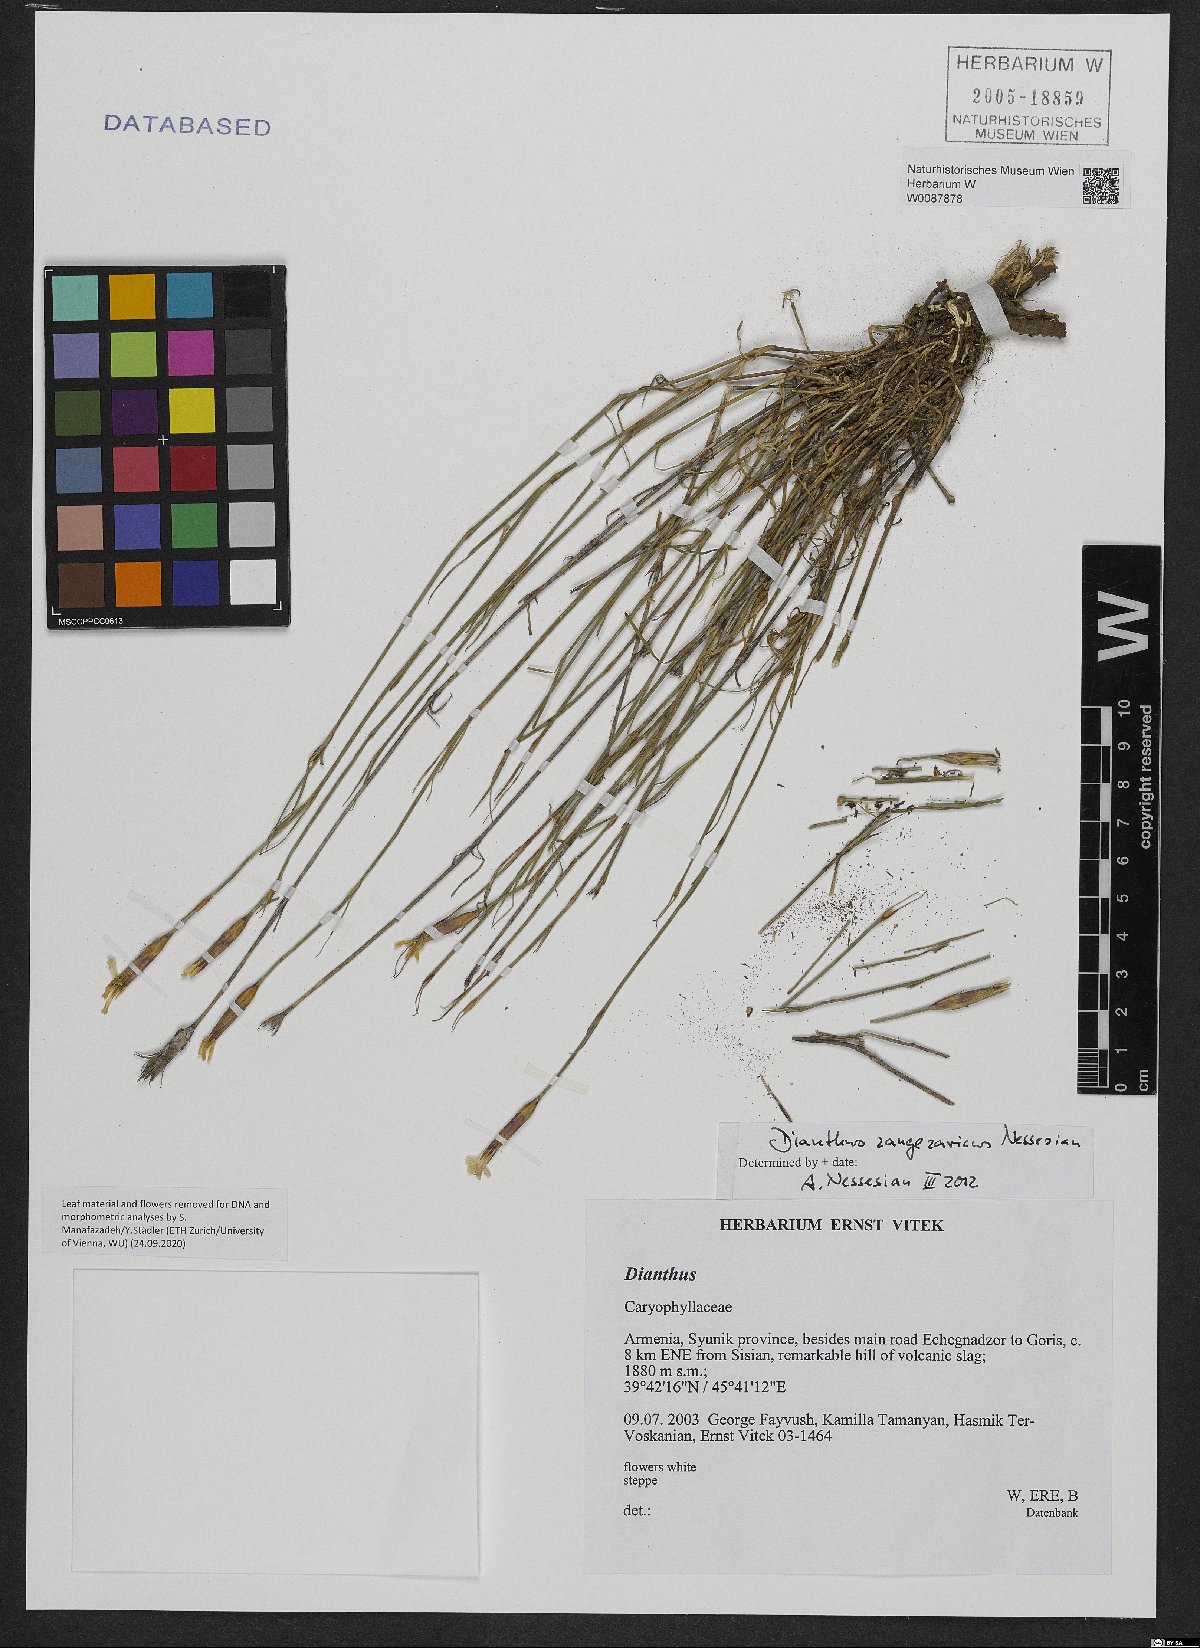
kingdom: Plantae
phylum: Tracheophyta
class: Magnoliopsida
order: Caryophyllales
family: Caryophyllaceae
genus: Dianthus
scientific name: Dianthus zangezuricus
